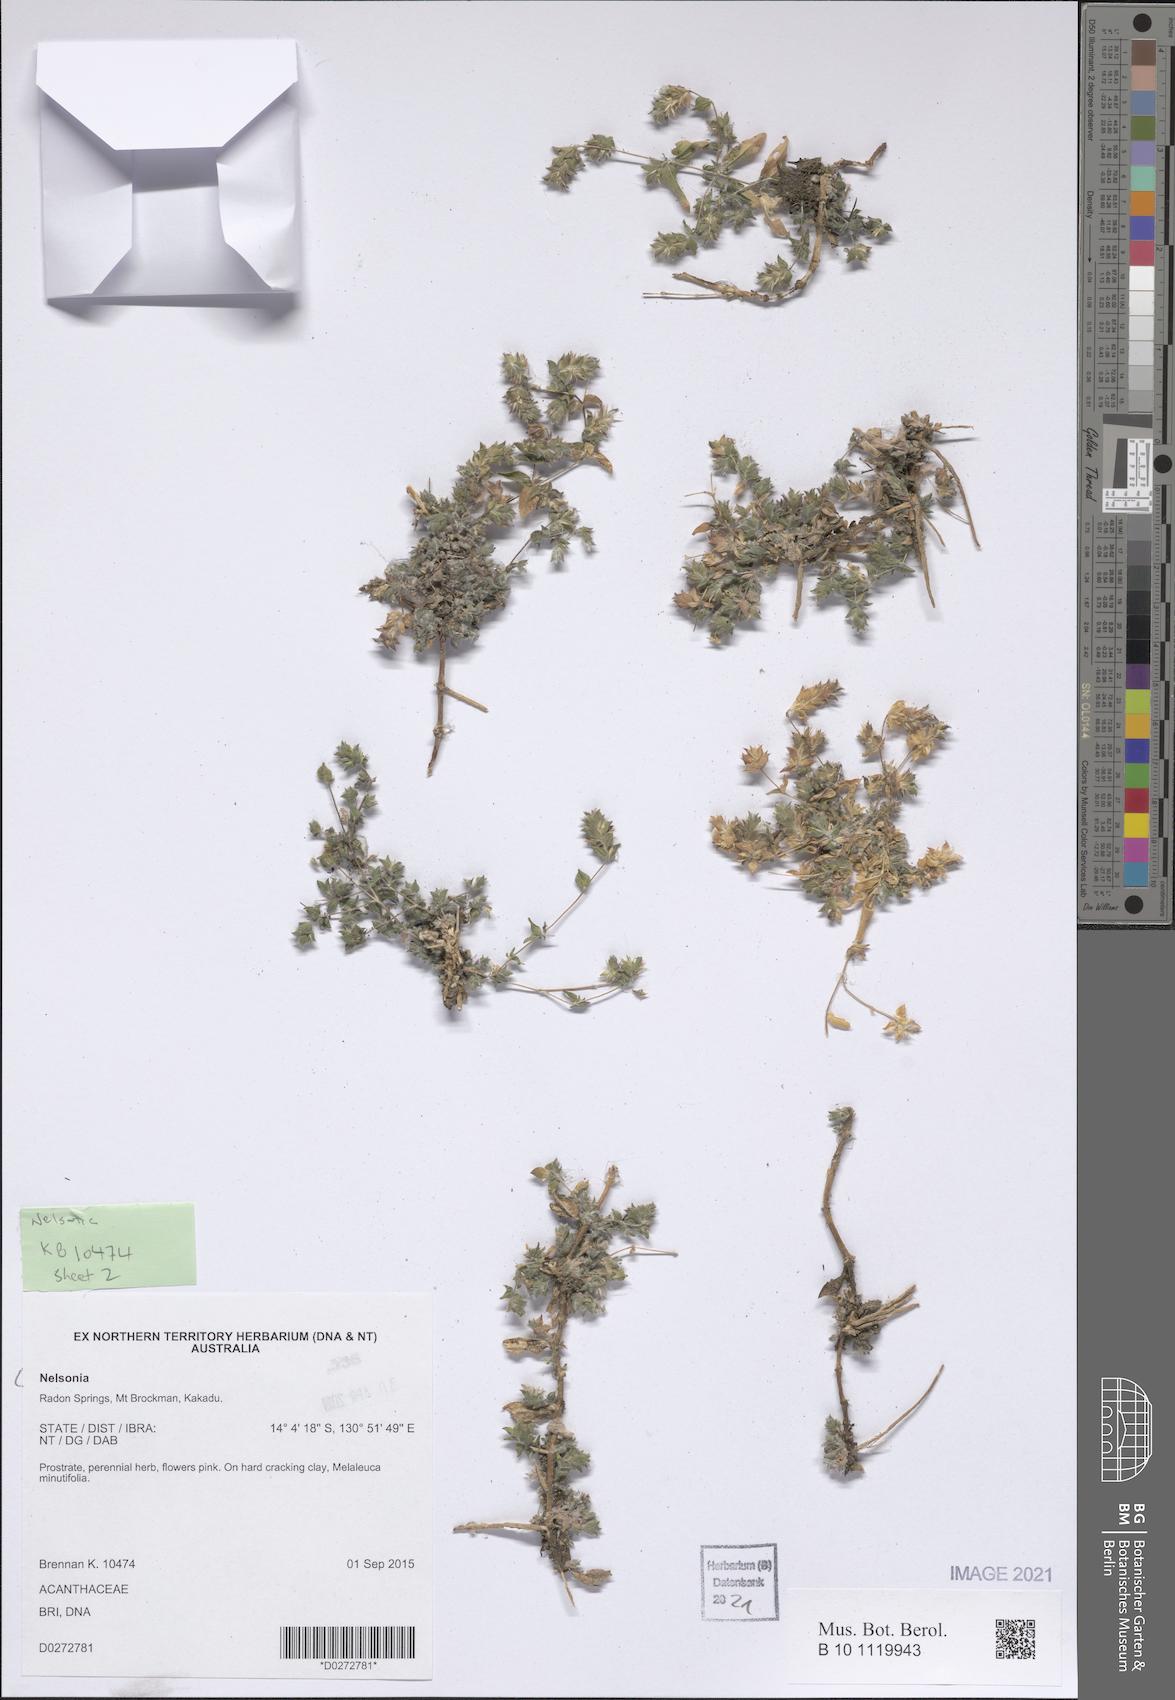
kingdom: Plantae
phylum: Tracheophyta
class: Magnoliopsida
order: Lamiales
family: Acanthaceae
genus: Nelsonia
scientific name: Nelsonia
